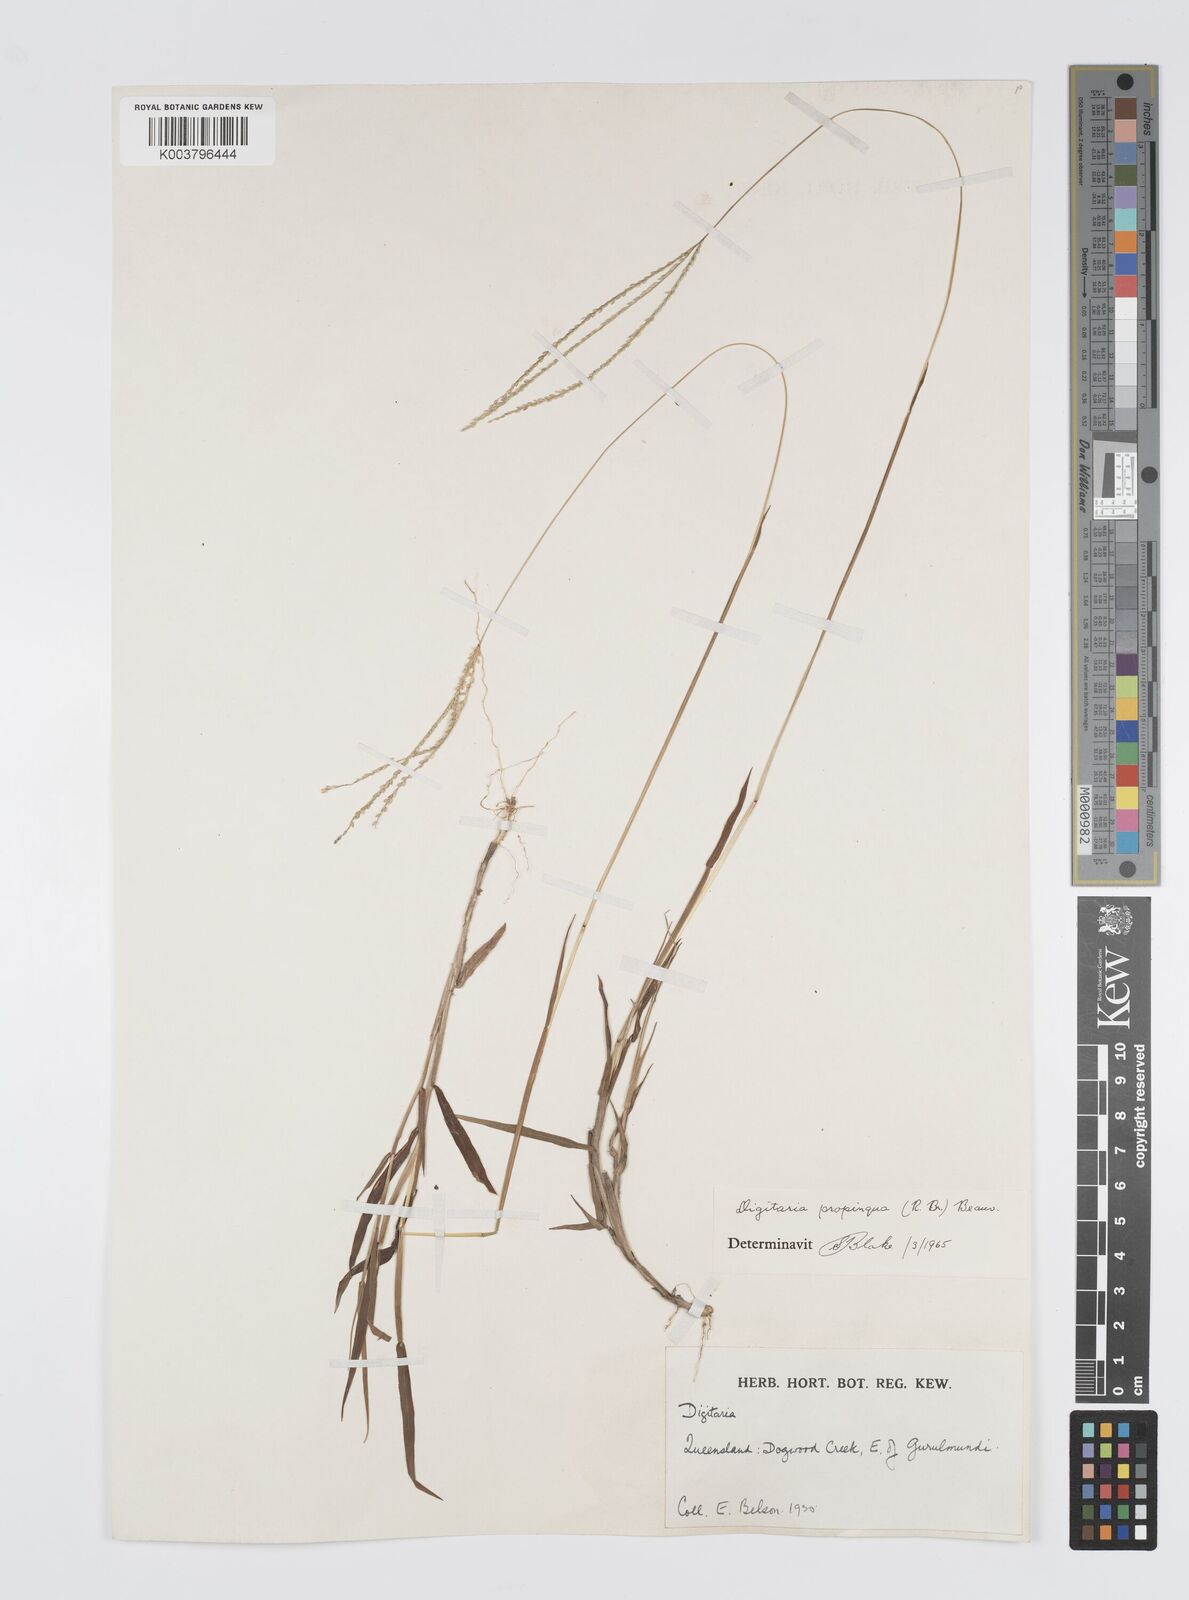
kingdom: Plantae
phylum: Tracheophyta
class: Liliopsida
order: Poales
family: Poaceae
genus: Digitaria
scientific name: Digitaria longiflora
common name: Wire crabgrass
